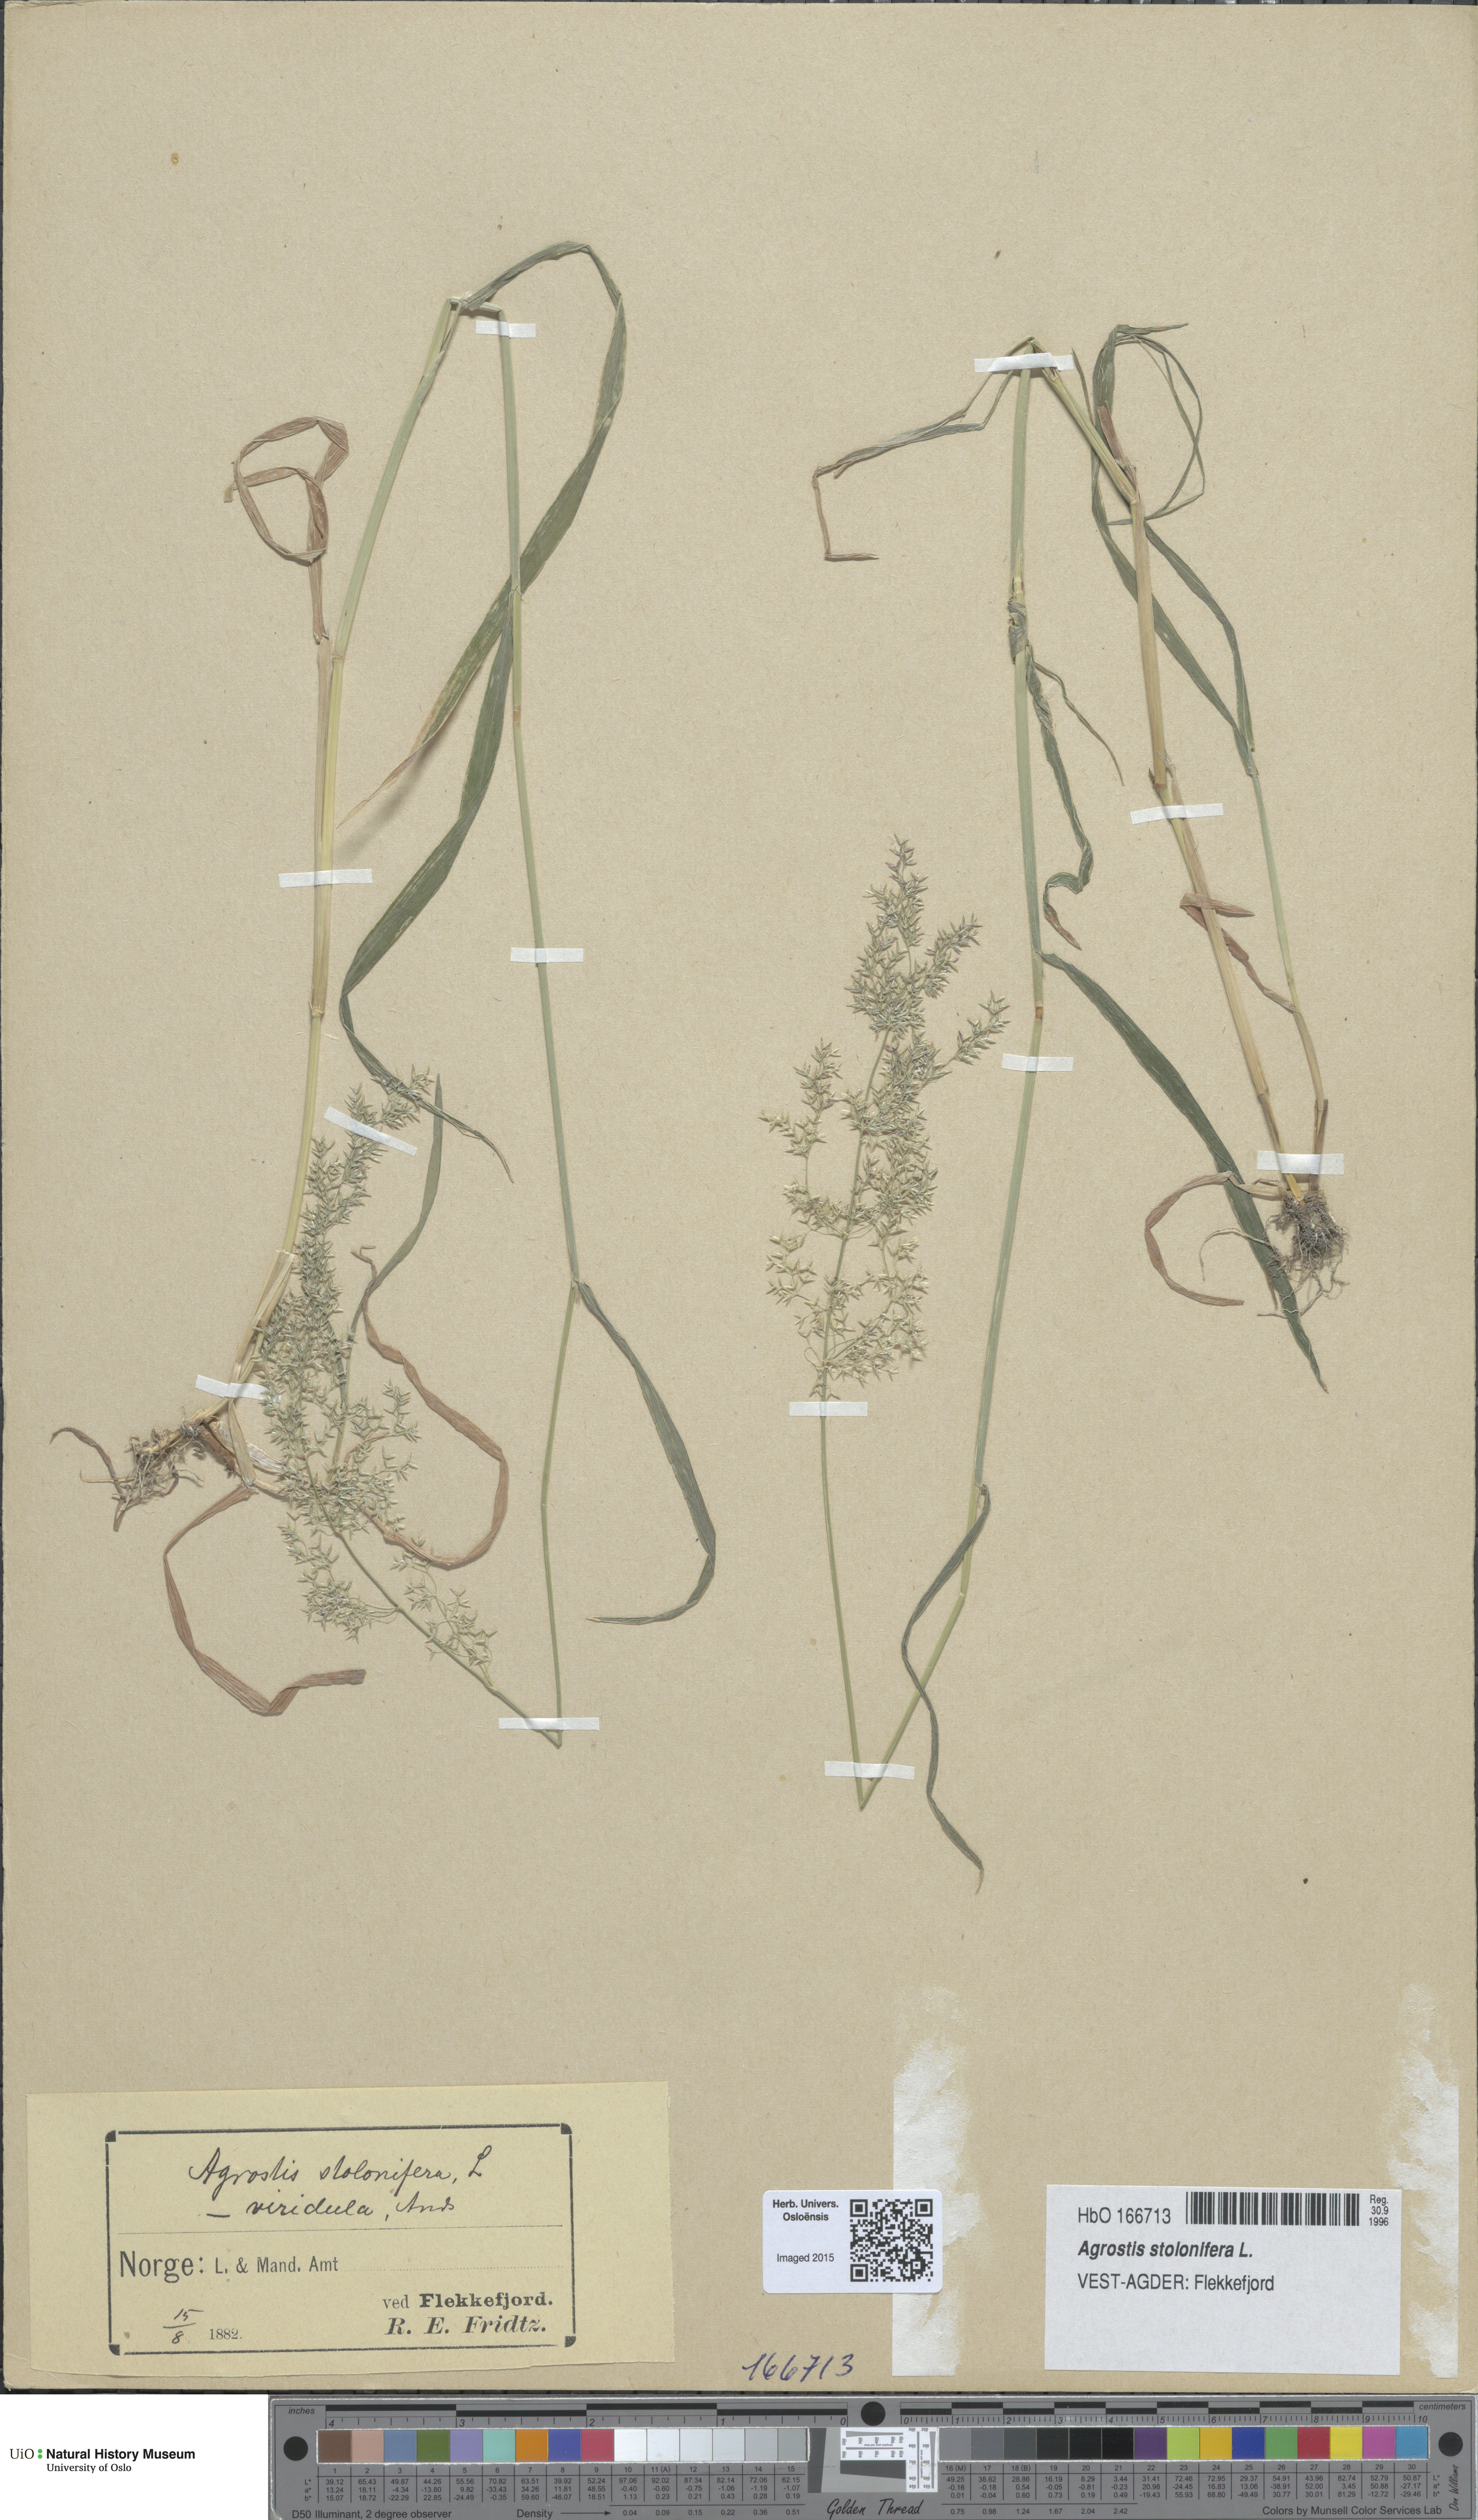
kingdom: Plantae
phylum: Tracheophyta
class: Liliopsida
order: Poales
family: Poaceae
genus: Agrostis
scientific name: Agrostis stolonifera
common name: Creeping bentgrass
